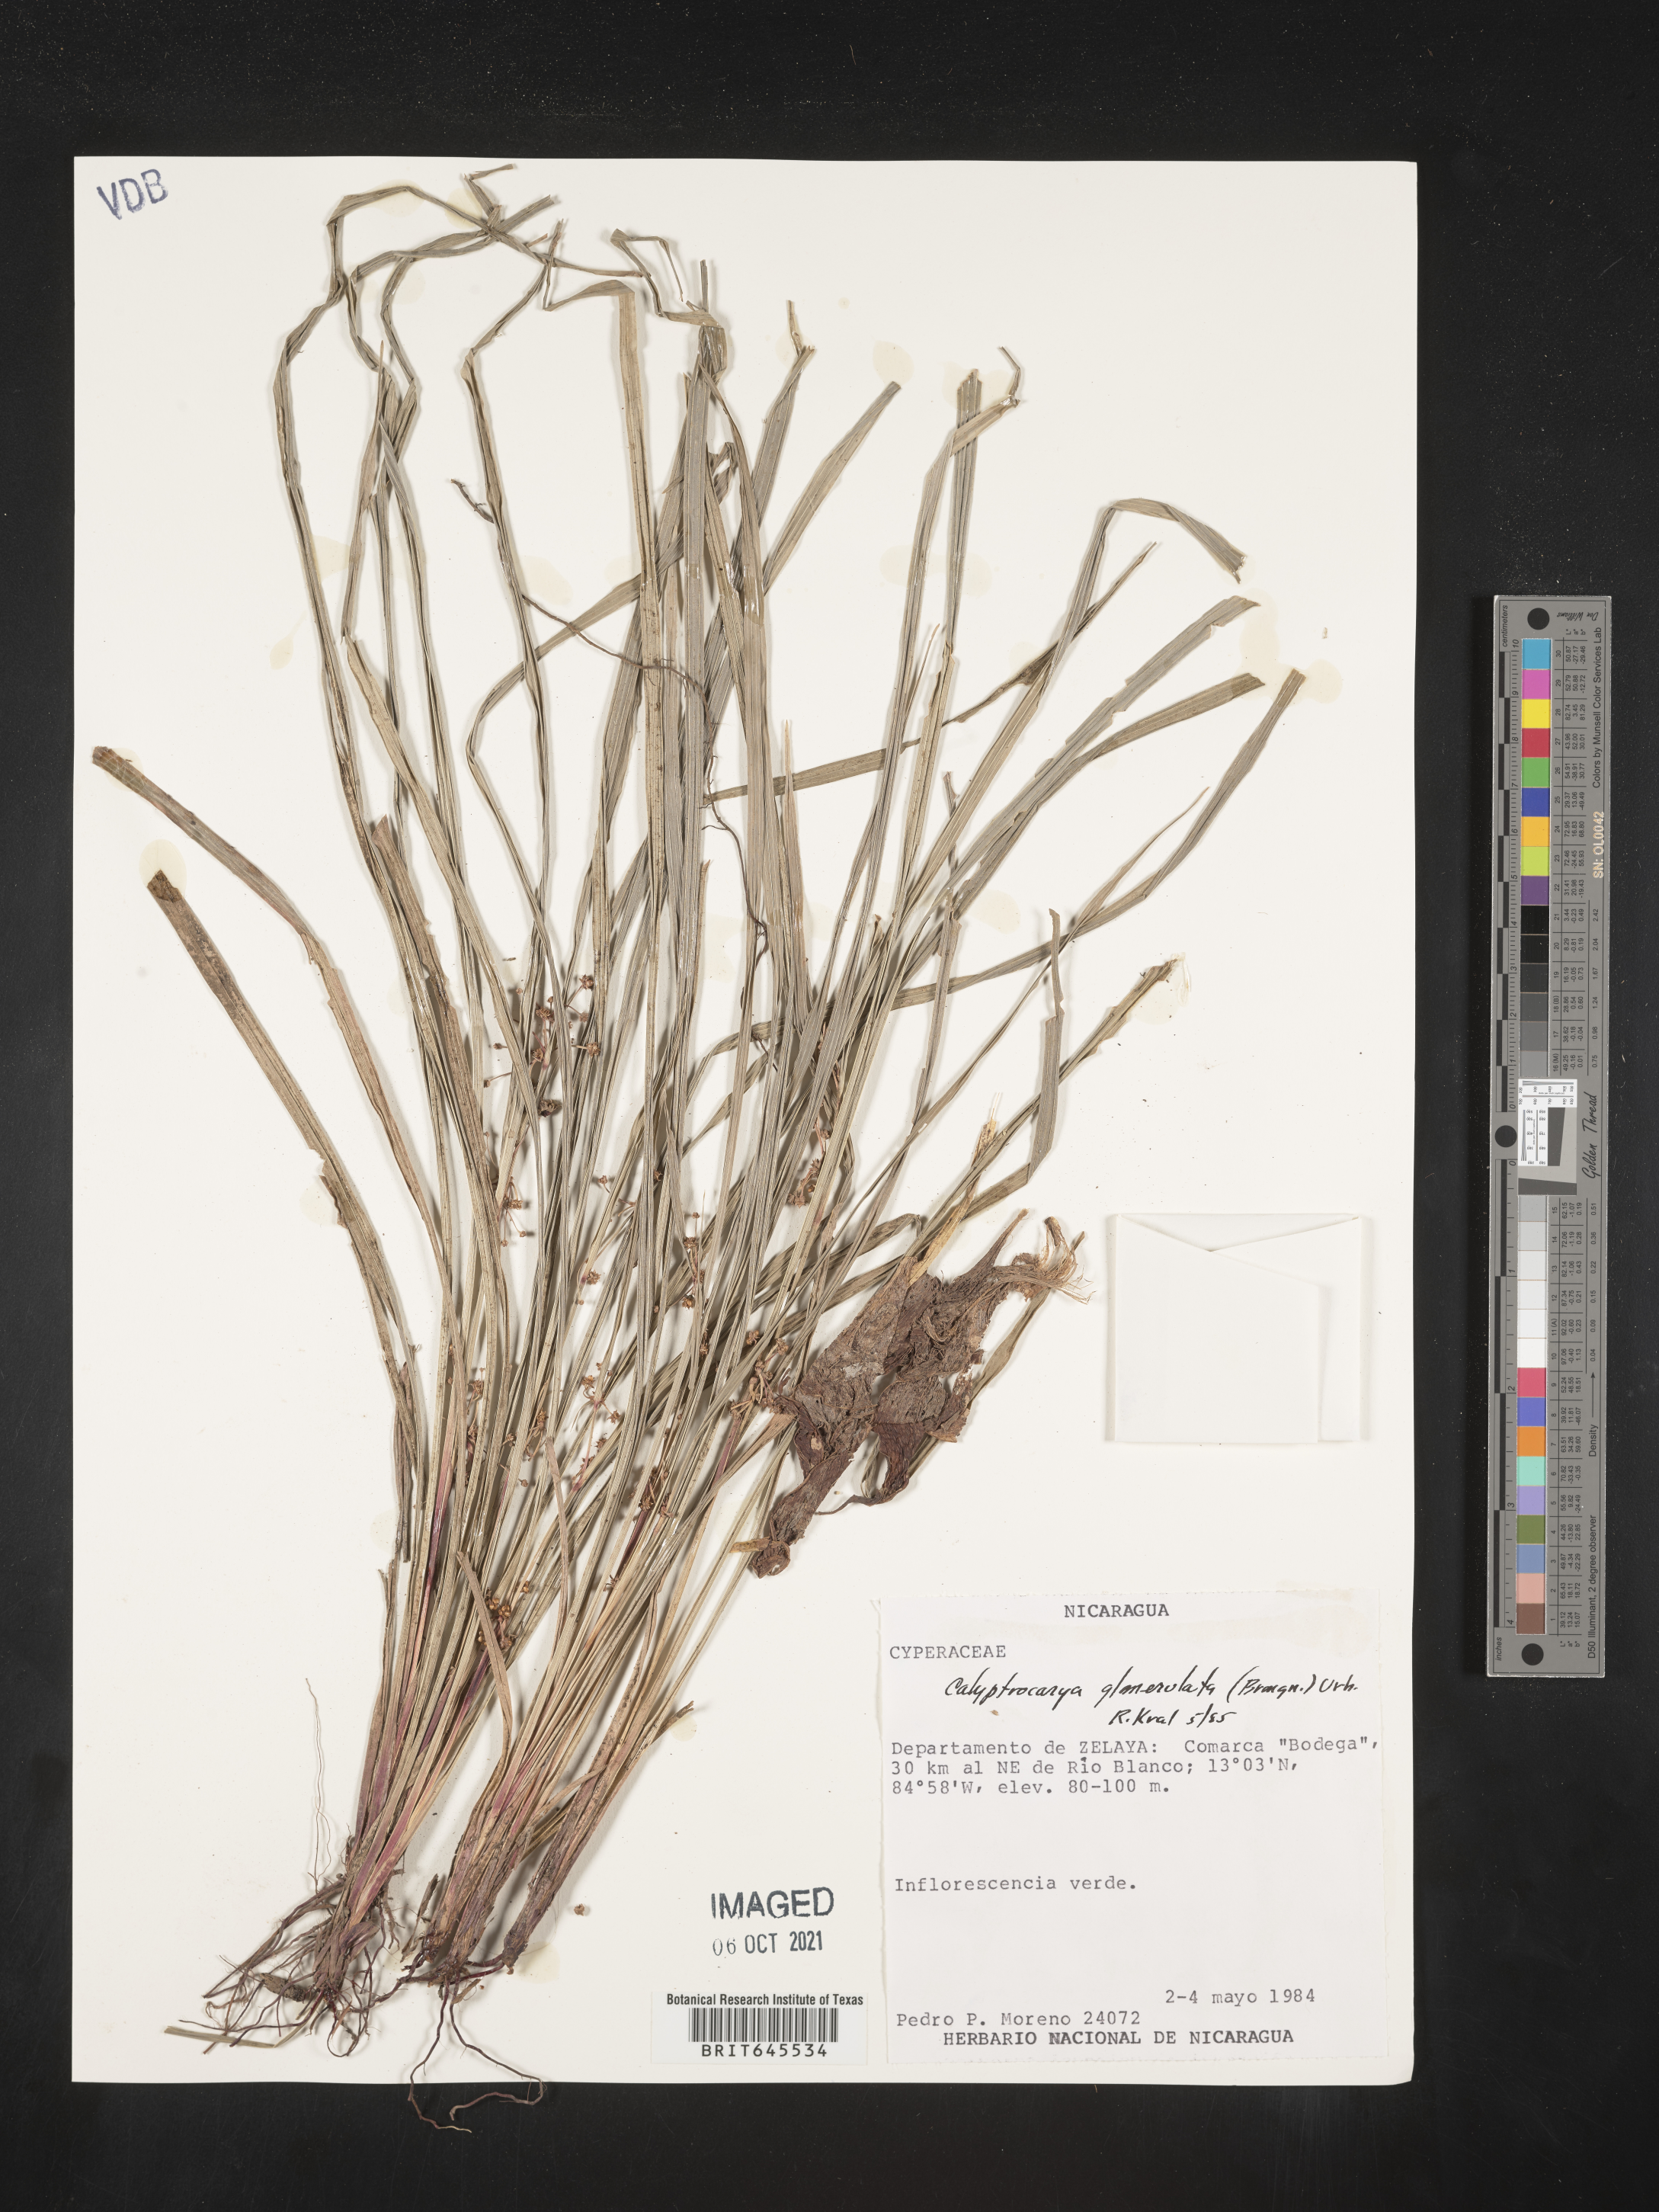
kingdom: Plantae
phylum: Tracheophyta
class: Liliopsida
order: Poales
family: Cyperaceae
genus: Calyptrocarya
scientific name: Calyptrocarya glomerulata
